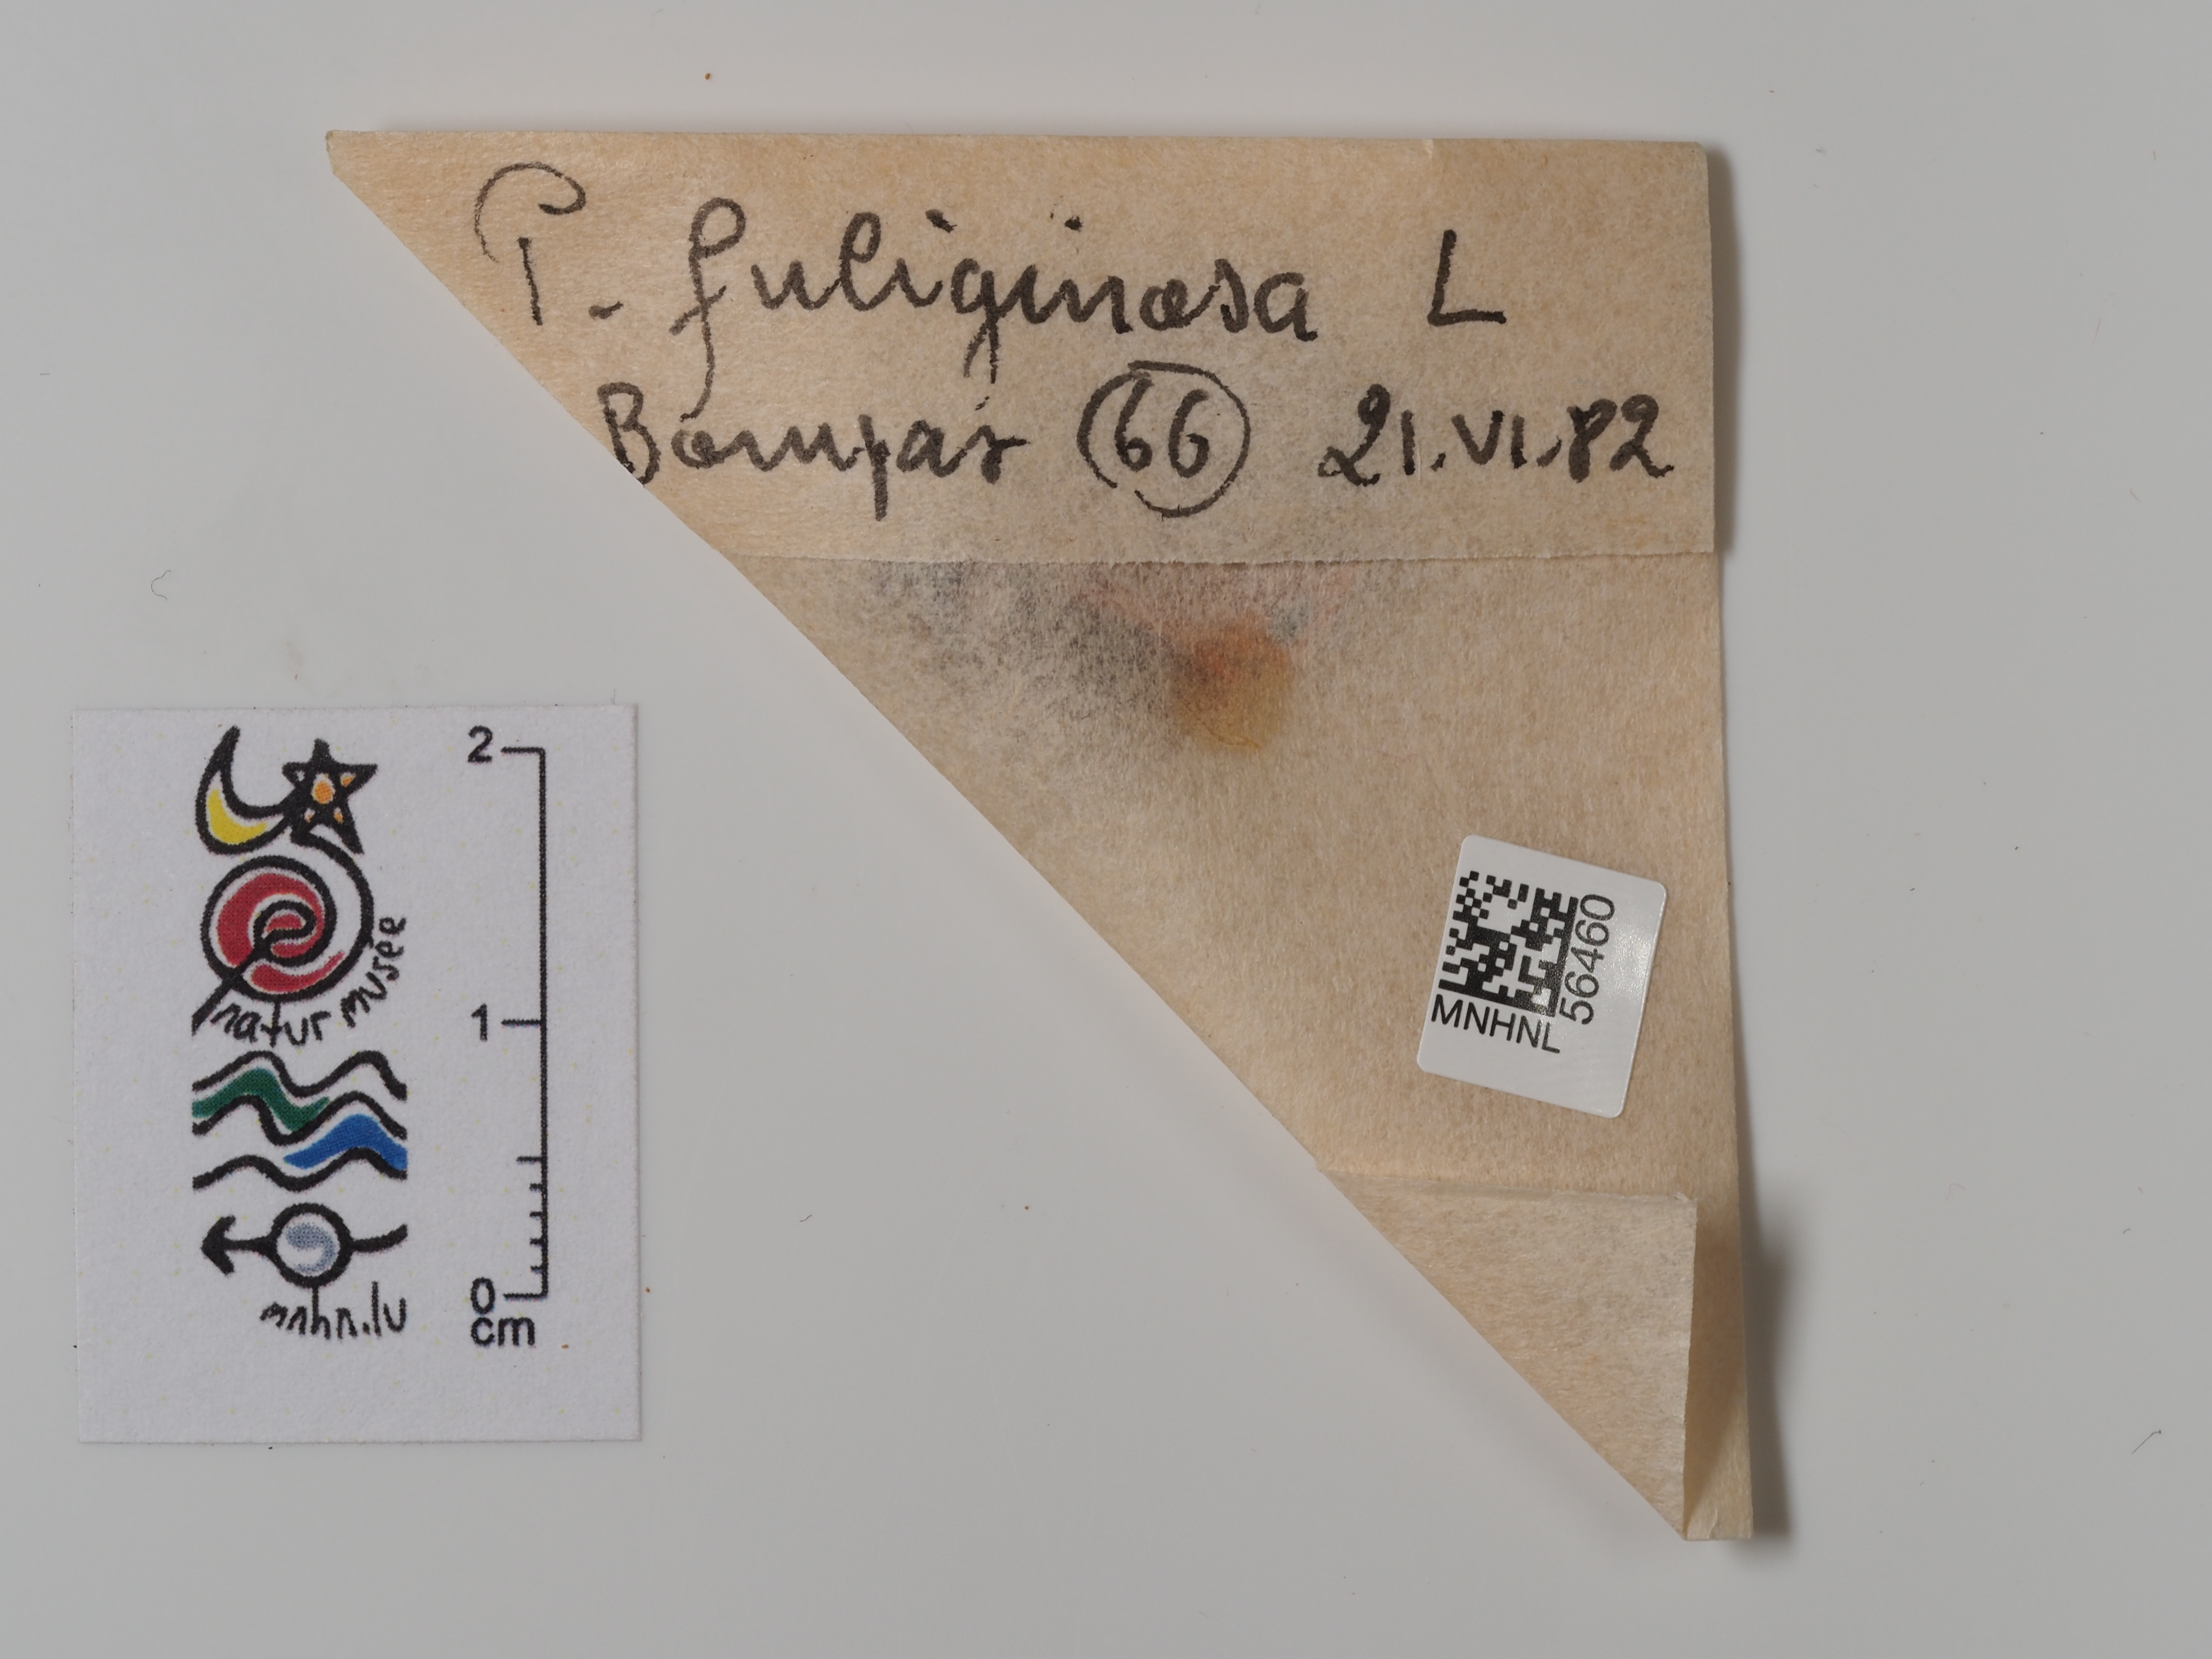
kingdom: Animalia
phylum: Arthropoda
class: Insecta
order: Lepidoptera
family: Erebidae
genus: Phragmatobia
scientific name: Phragmatobia fuliginosa
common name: Ruby tiger
